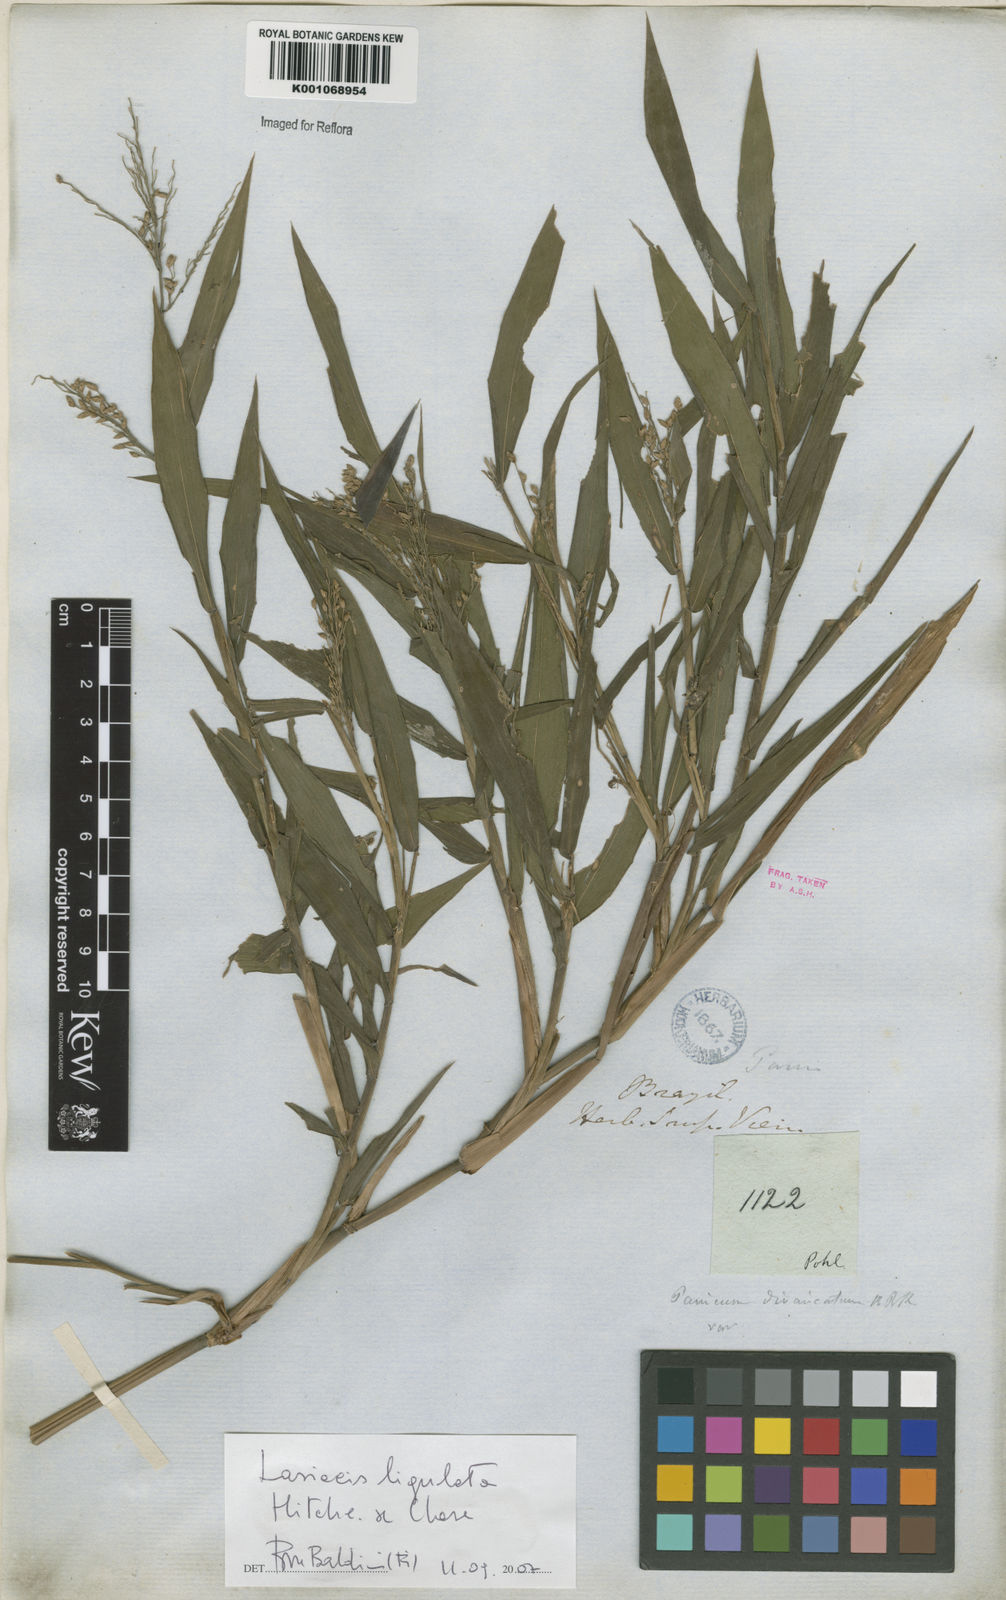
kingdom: Plantae
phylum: Tracheophyta
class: Liliopsida
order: Poales
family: Poaceae
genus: Lasiacis
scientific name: Lasiacis ligulata
